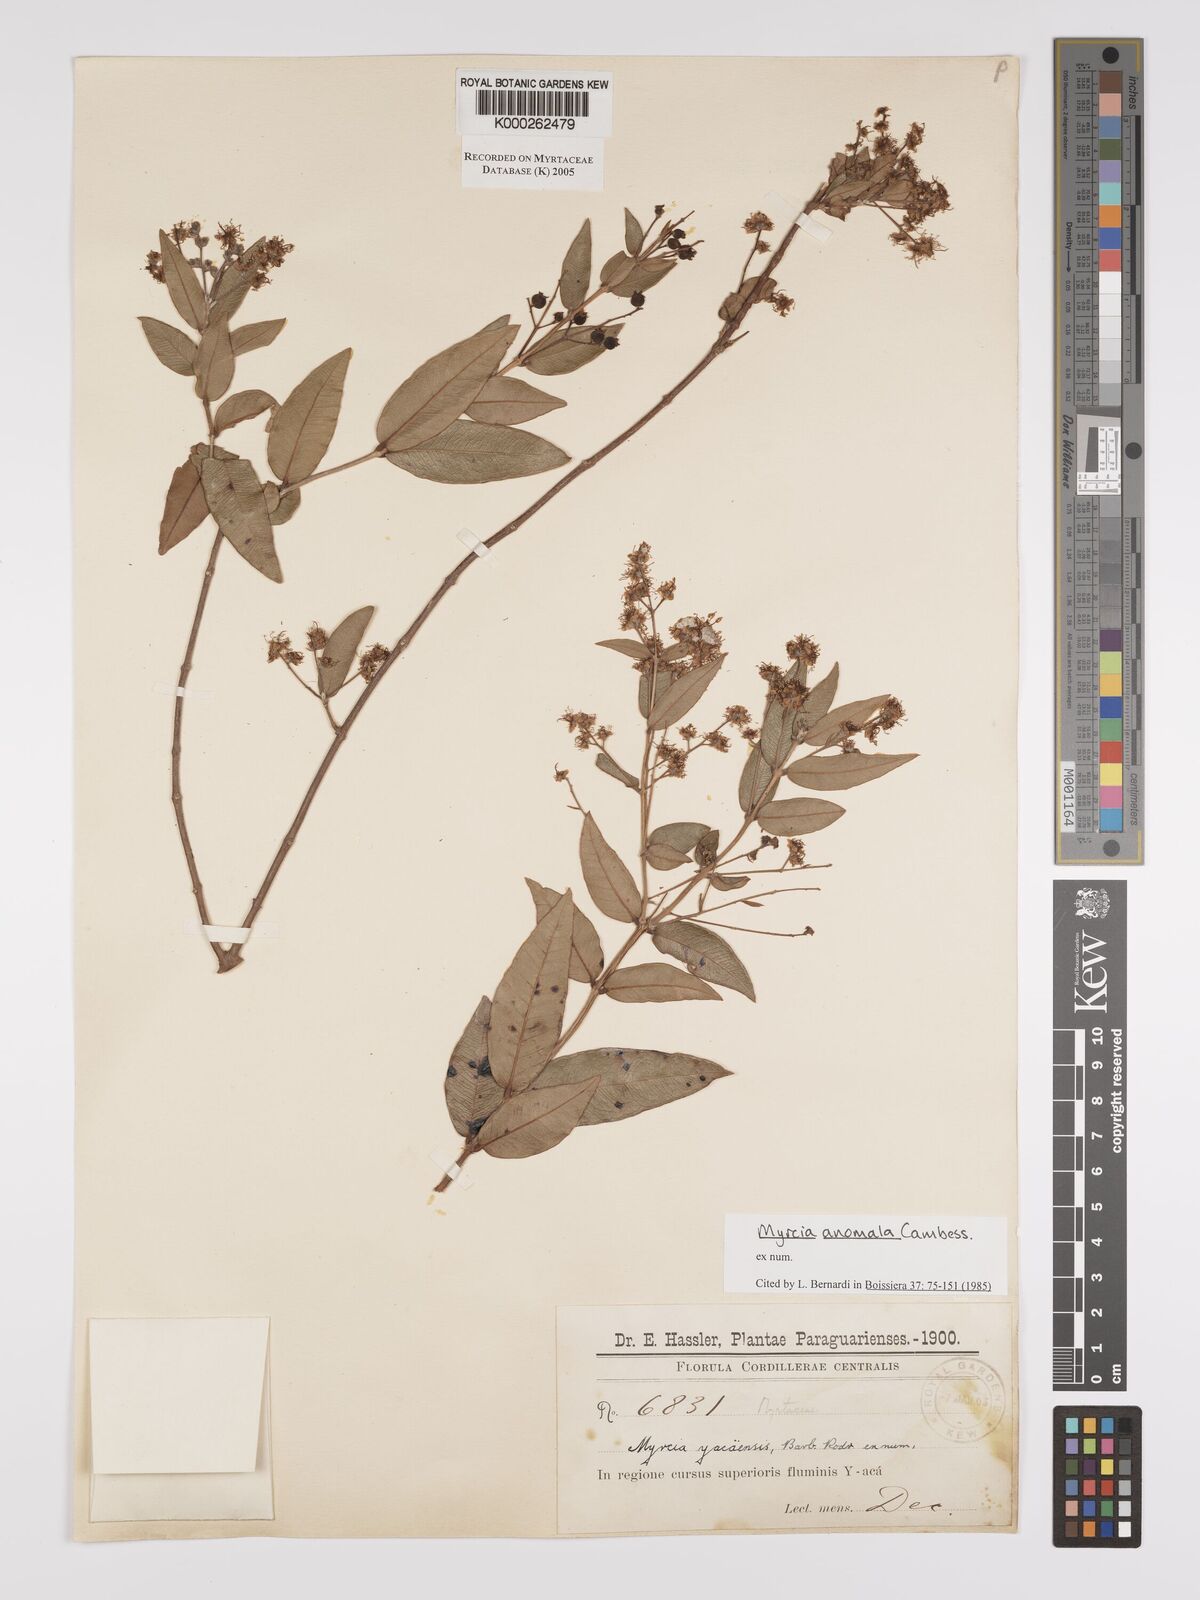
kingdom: Plantae
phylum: Tracheophyta
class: Magnoliopsida
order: Myrtales
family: Myrtaceae
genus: Myrcia
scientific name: Myrcia anomala
